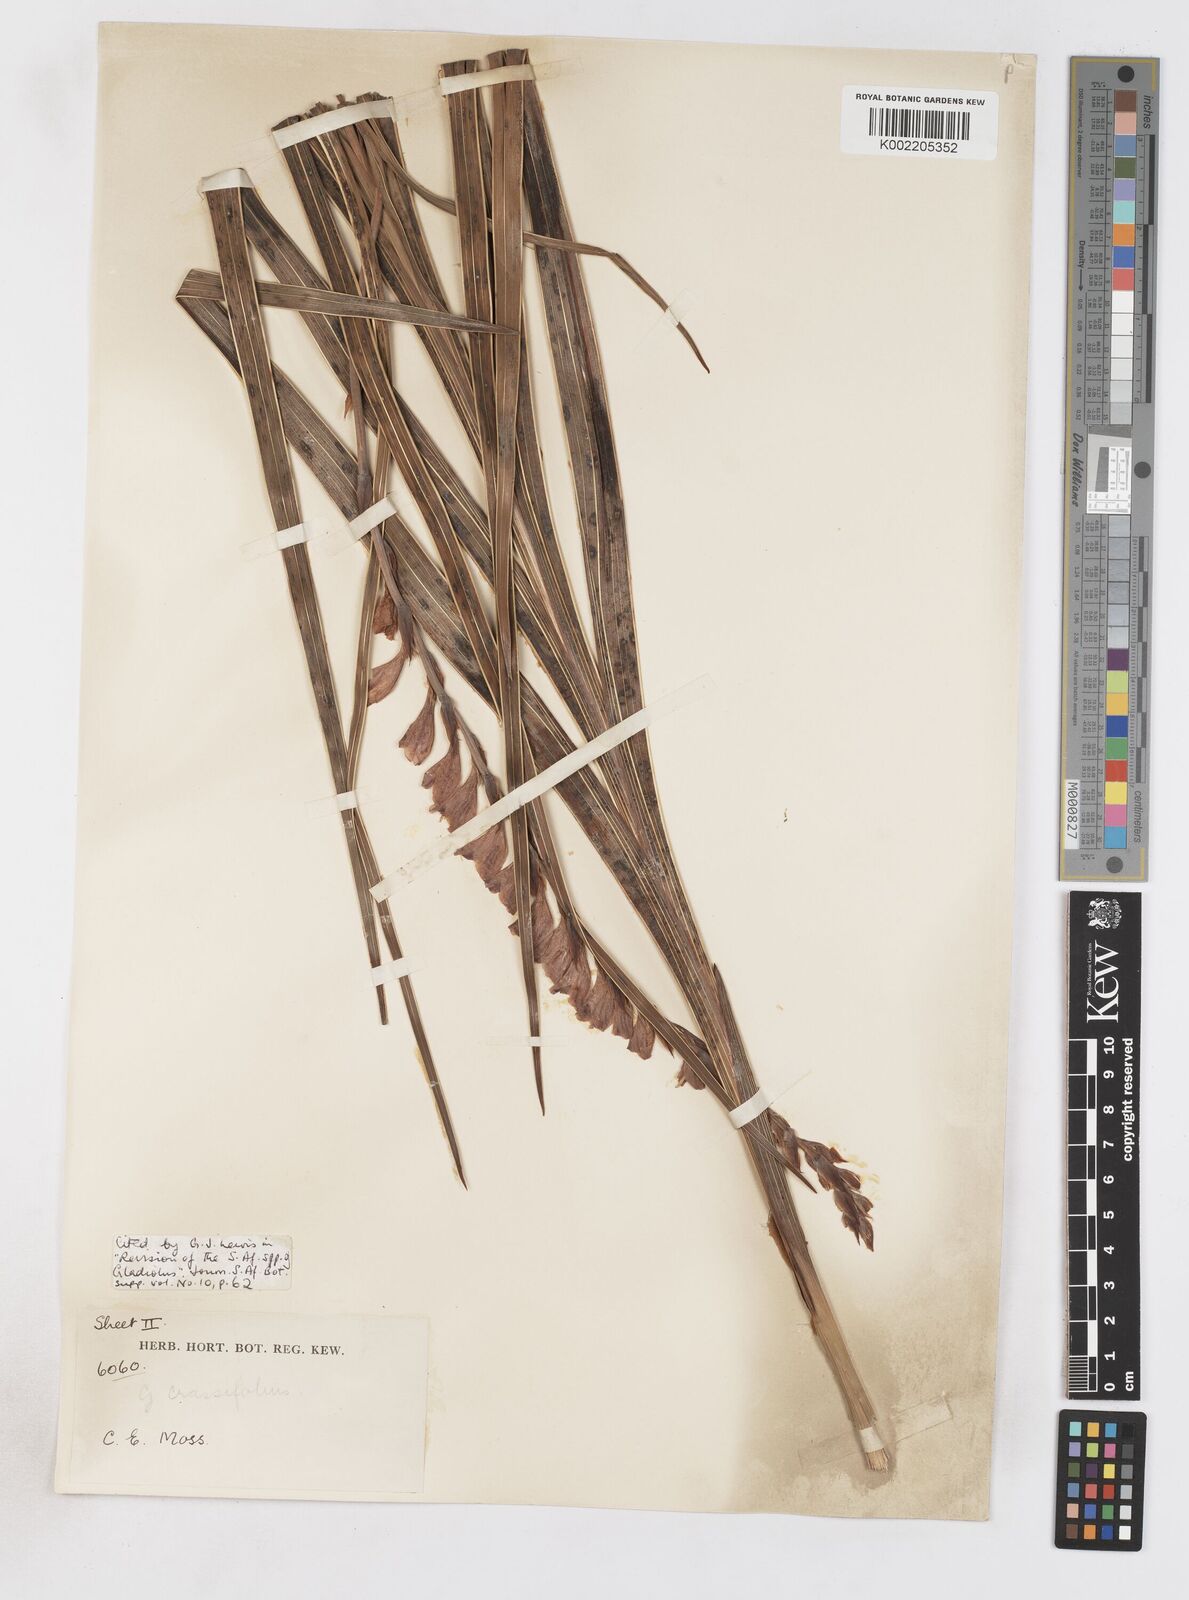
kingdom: Plantae
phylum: Tracheophyta
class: Liliopsida
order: Asparagales
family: Iridaceae
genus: Gladiolus
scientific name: Gladiolus crassifolius
